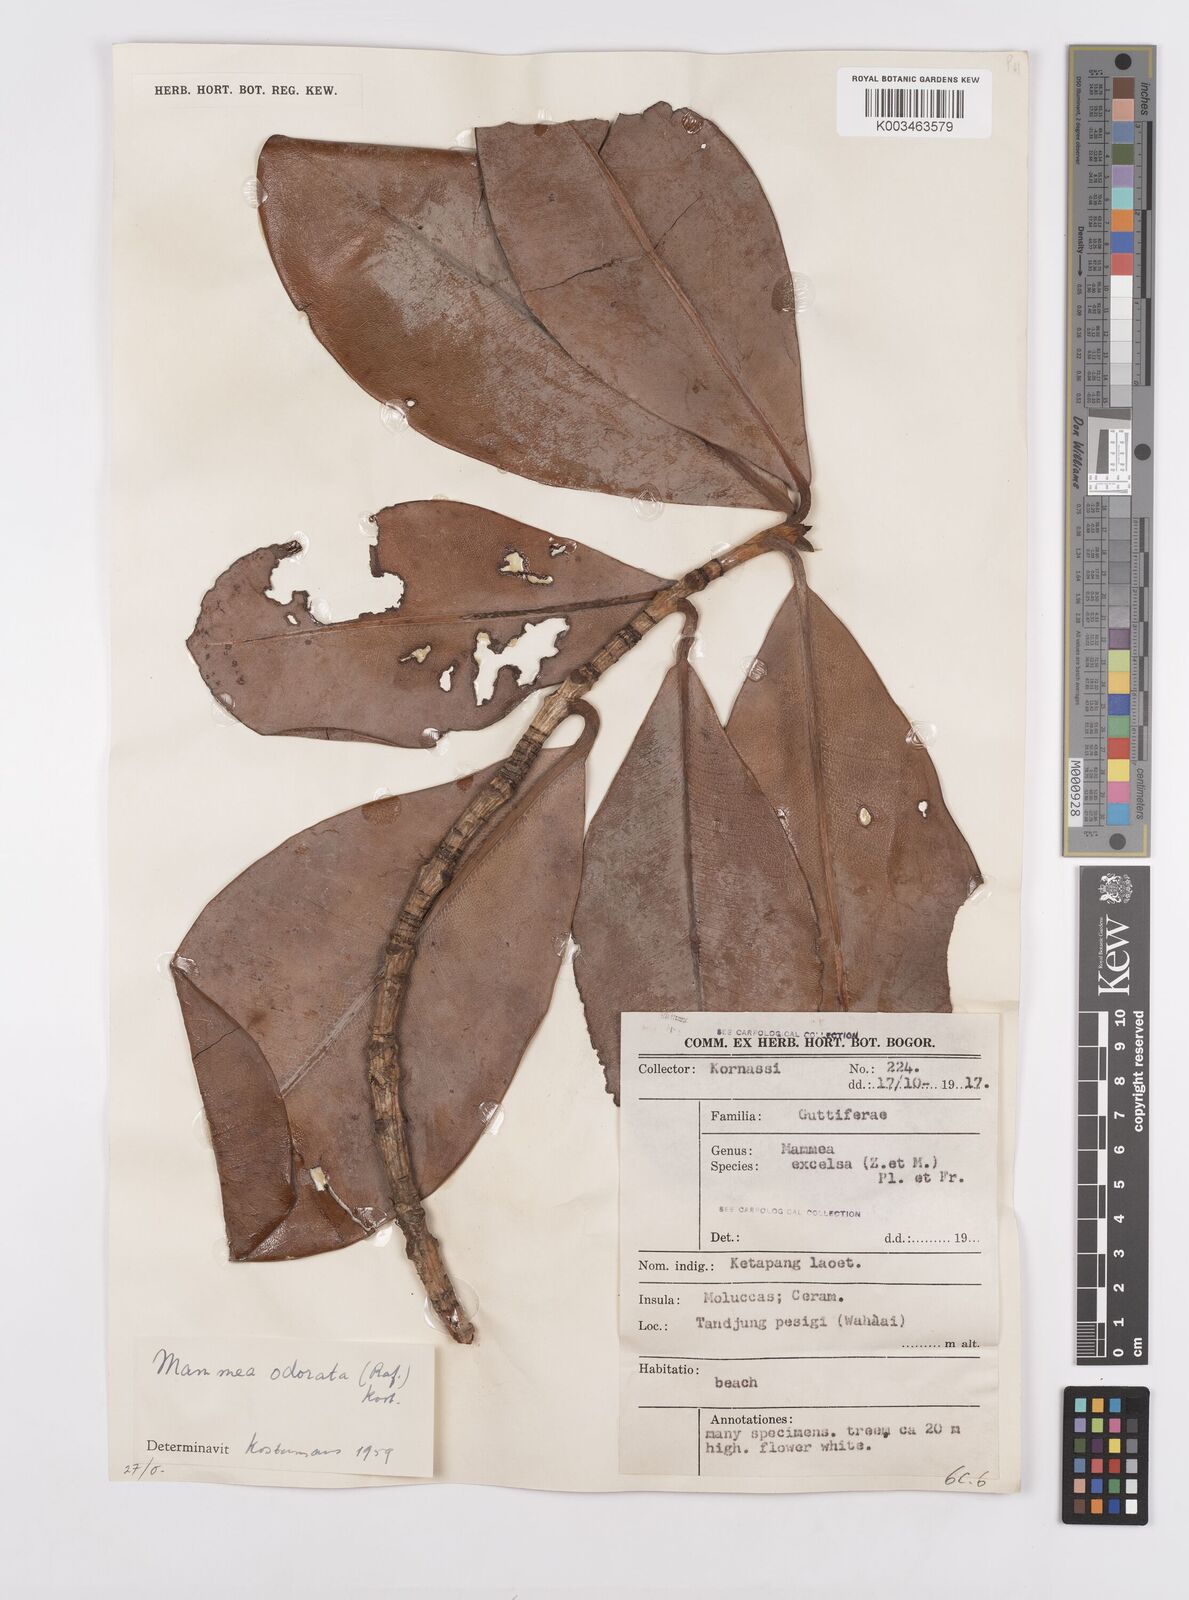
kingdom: Plantae
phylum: Tracheophyta
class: Magnoliopsida
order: Malpighiales
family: Calophyllaceae
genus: Mammea
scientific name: Mammea odorata
